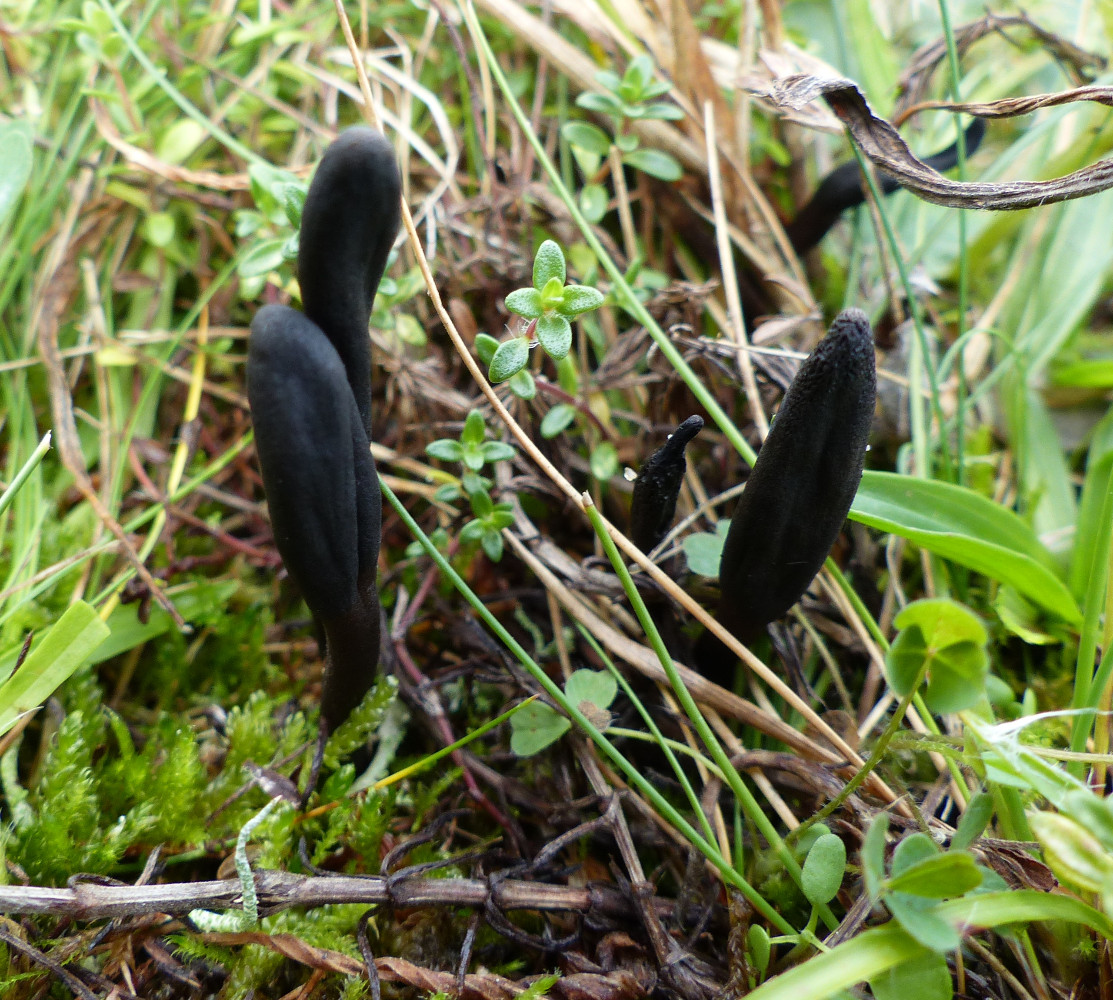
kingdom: Fungi
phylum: Ascomycota
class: Geoglossomycetes
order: Geoglossales
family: Geoglossaceae
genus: Geoglossum
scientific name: Geoglossum umbratile
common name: slank jordtunge
